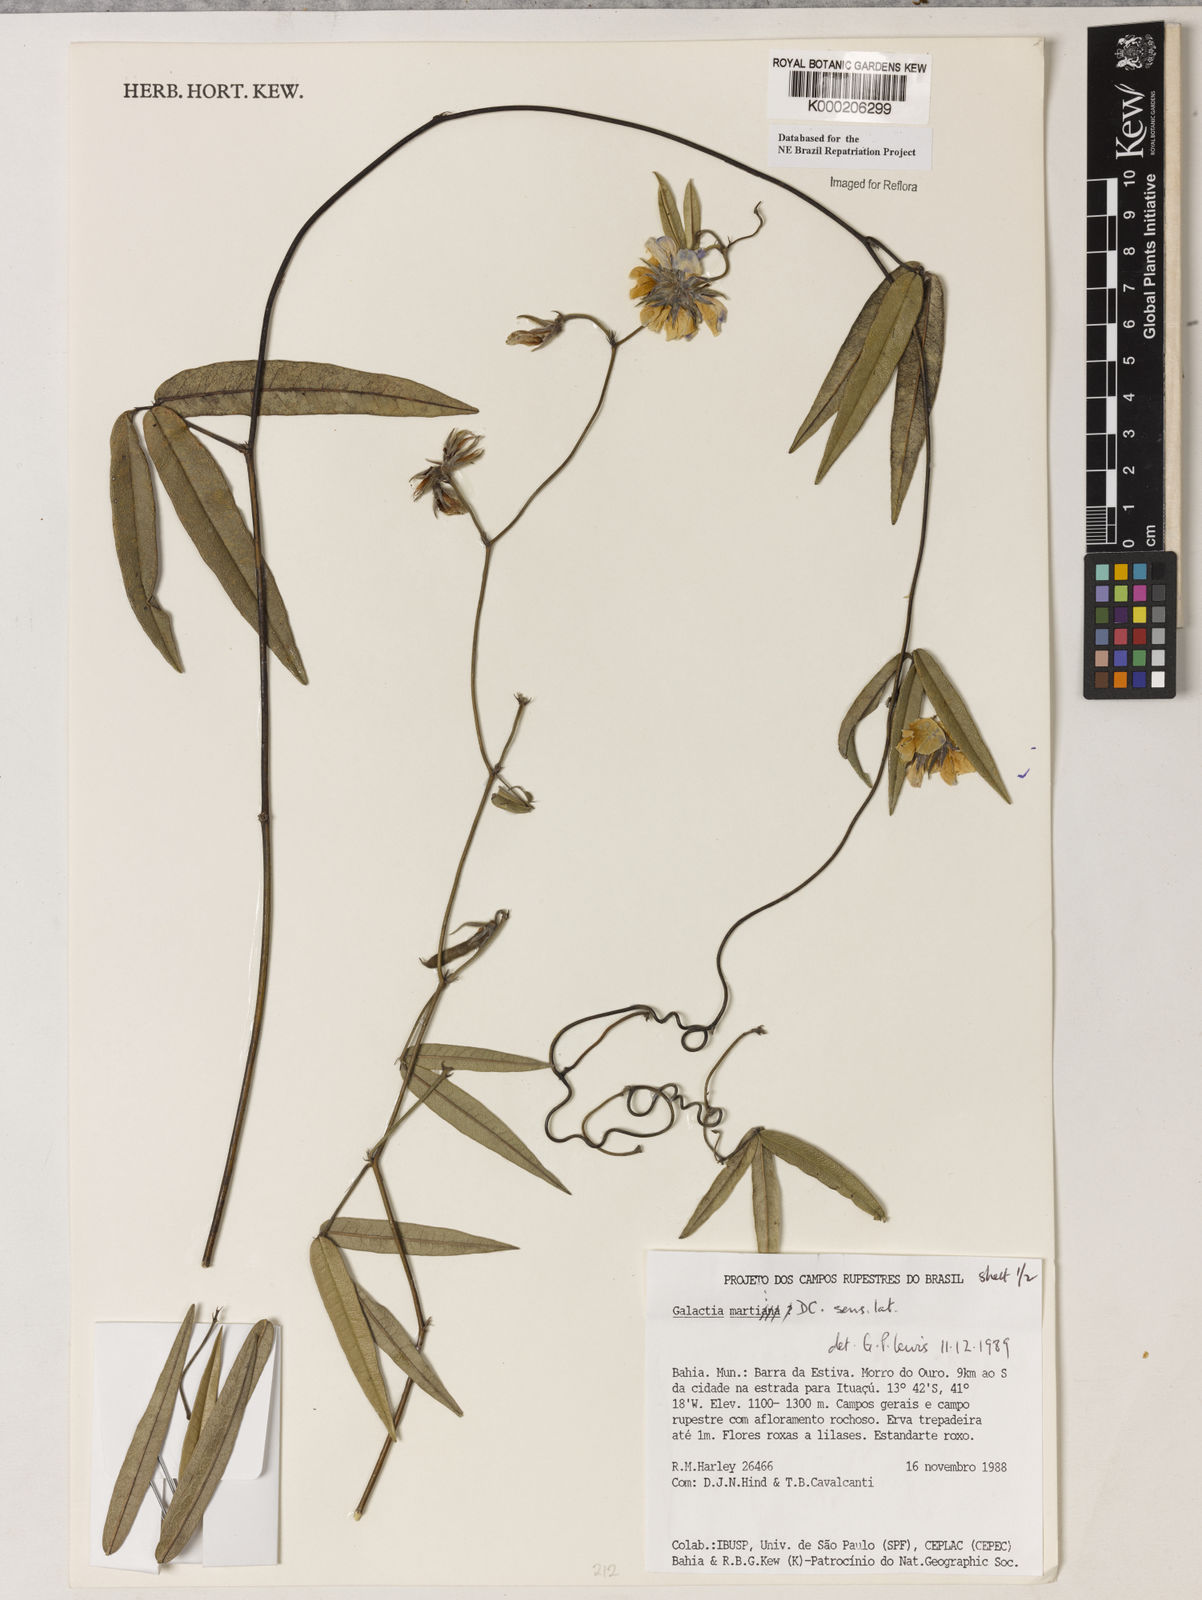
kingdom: Plantae
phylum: Tracheophyta
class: Magnoliopsida
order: Fabales
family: Fabaceae
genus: Betencourtia
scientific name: Betencourtia martii
